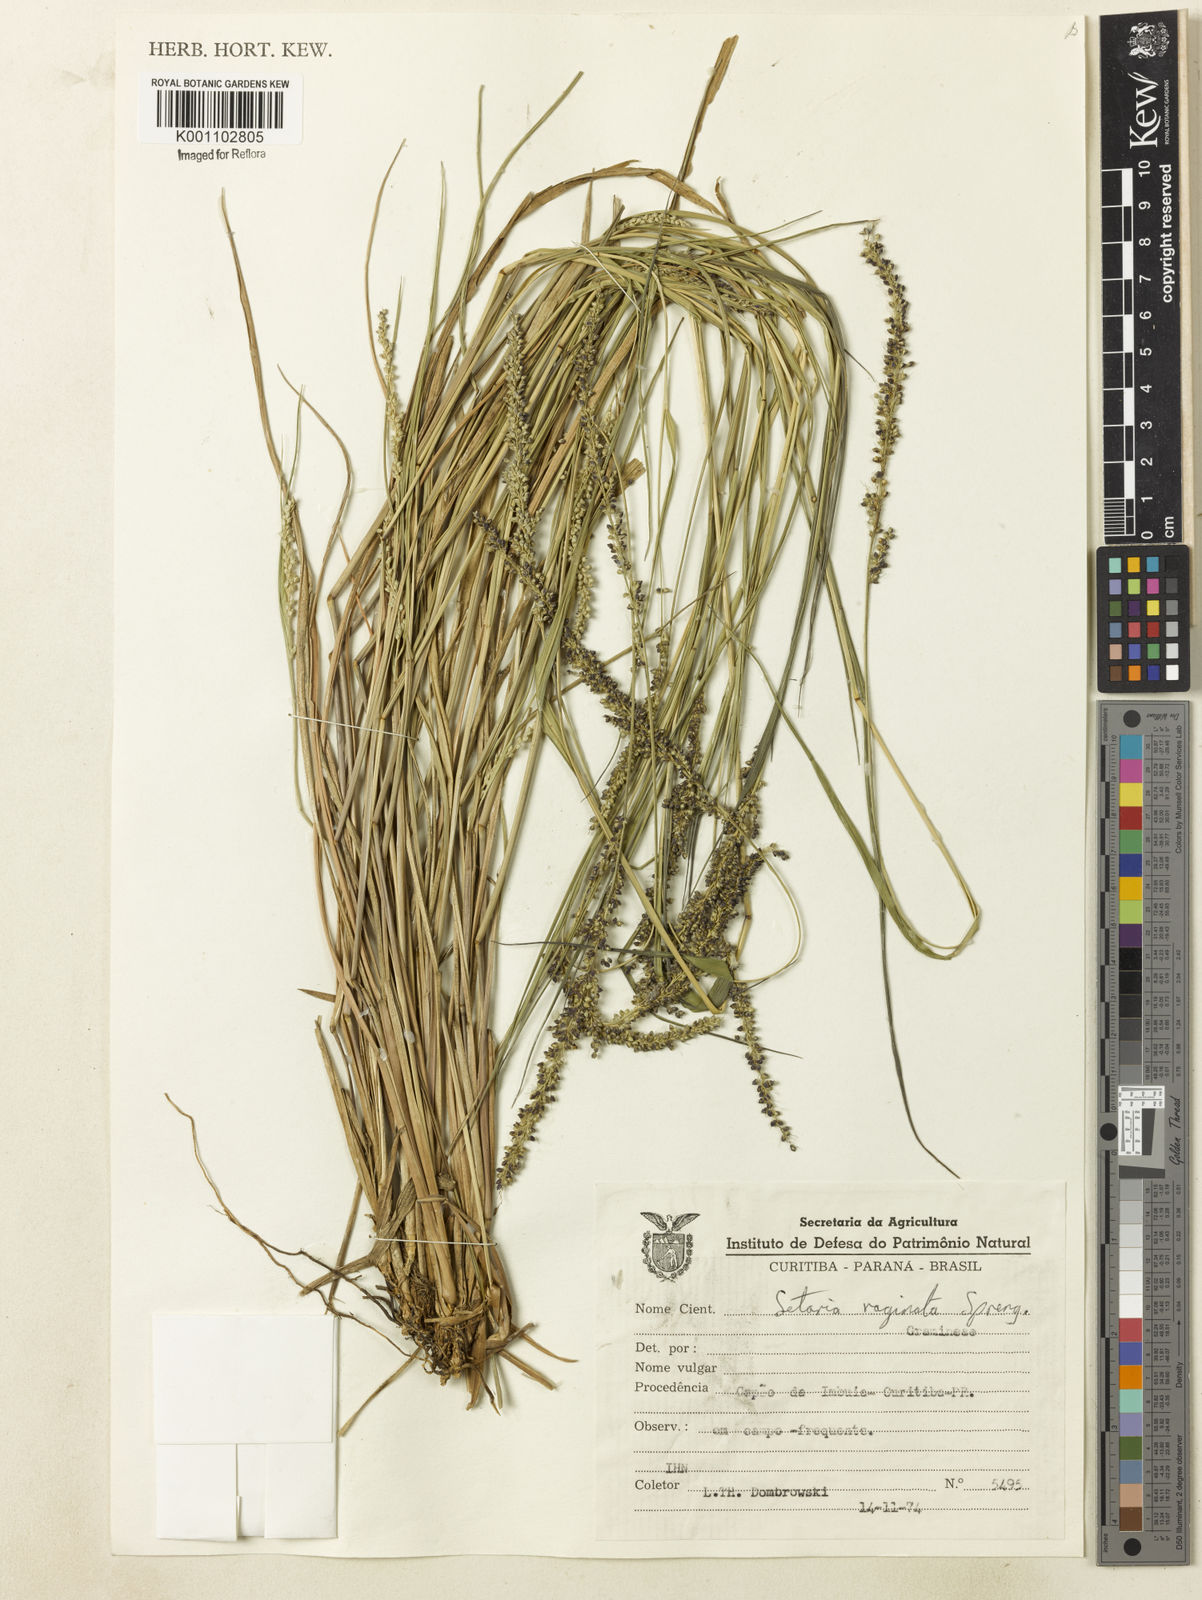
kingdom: Plantae
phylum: Tracheophyta
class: Liliopsida
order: Poales
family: Poaceae
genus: Setaria
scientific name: Setaria setosa
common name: West indies bristle grass
